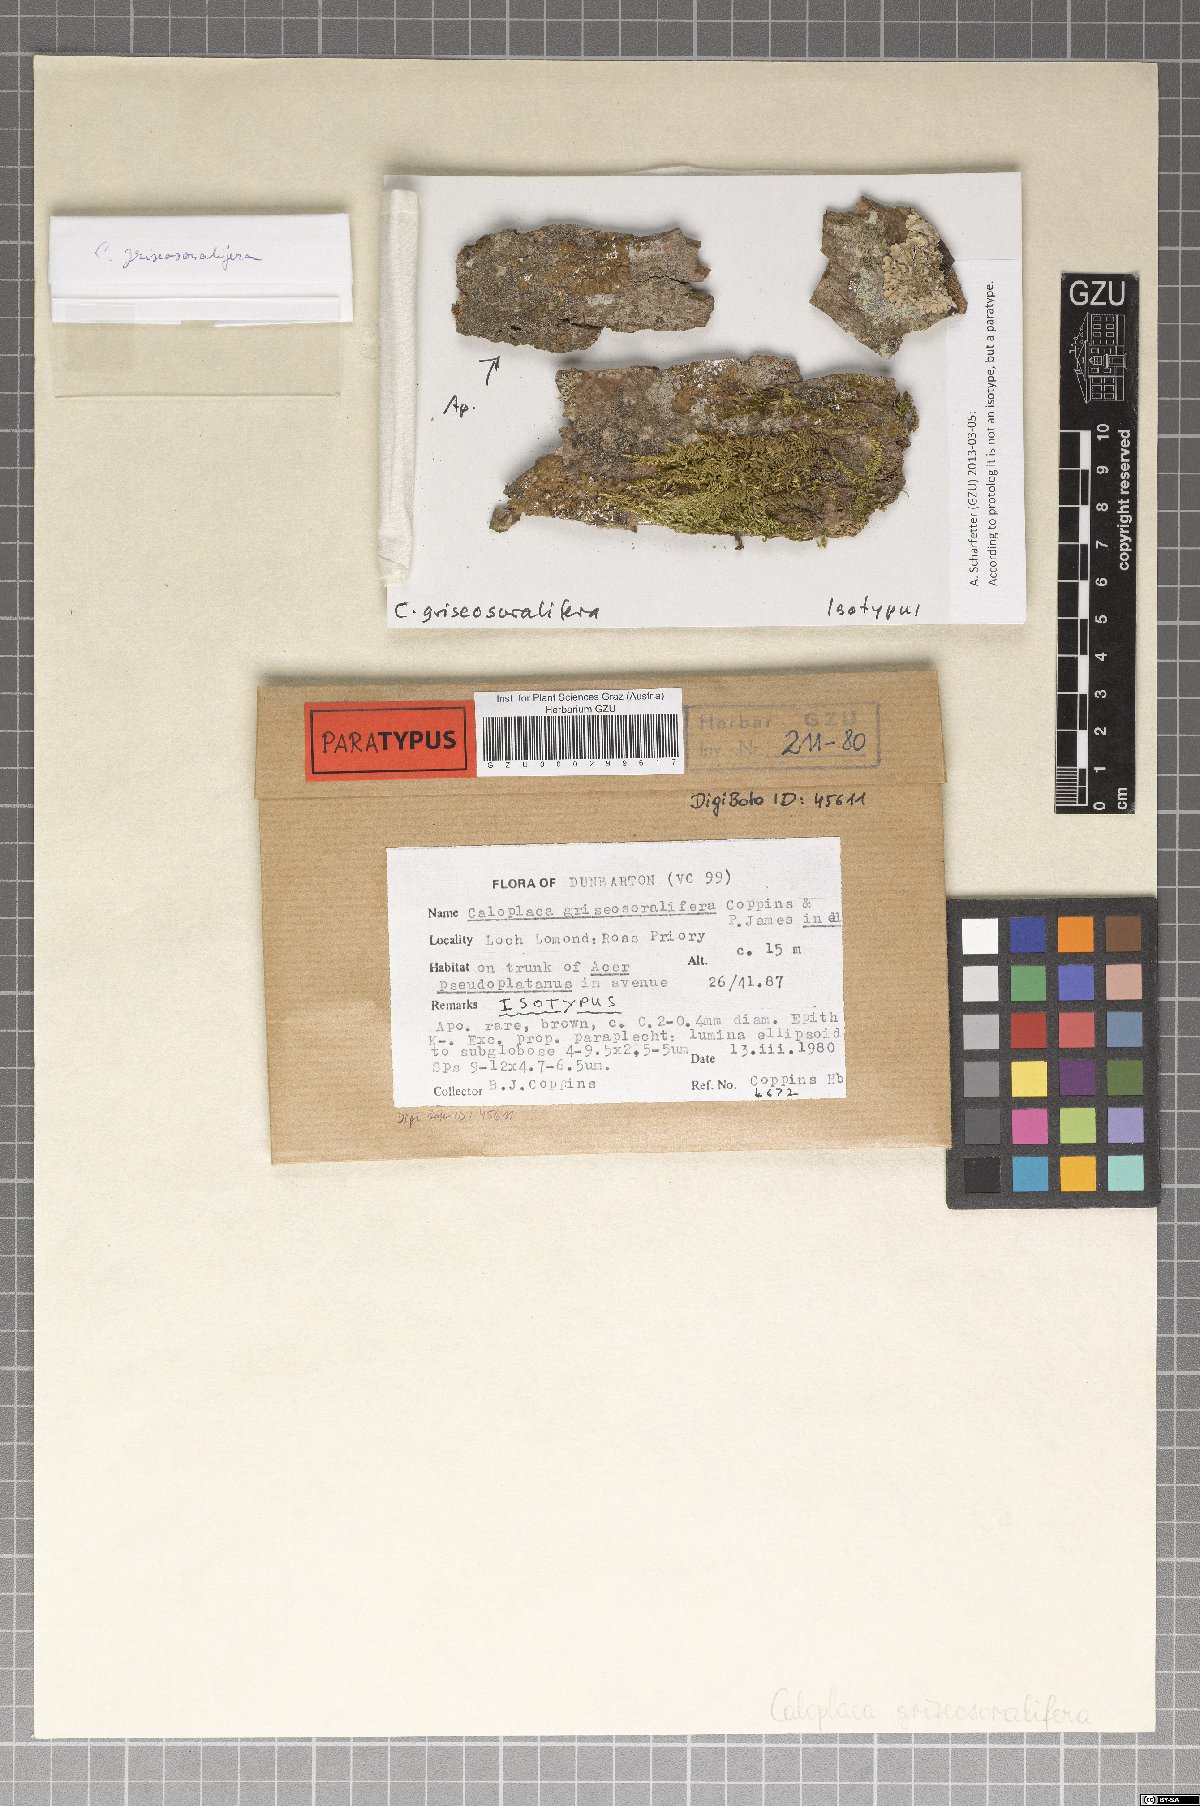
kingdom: Fungi
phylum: Ascomycota
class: Lecanoromycetes
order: Caliciales
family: Physciaceae
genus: Rinodina
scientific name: Rinodina griseosoralifera
